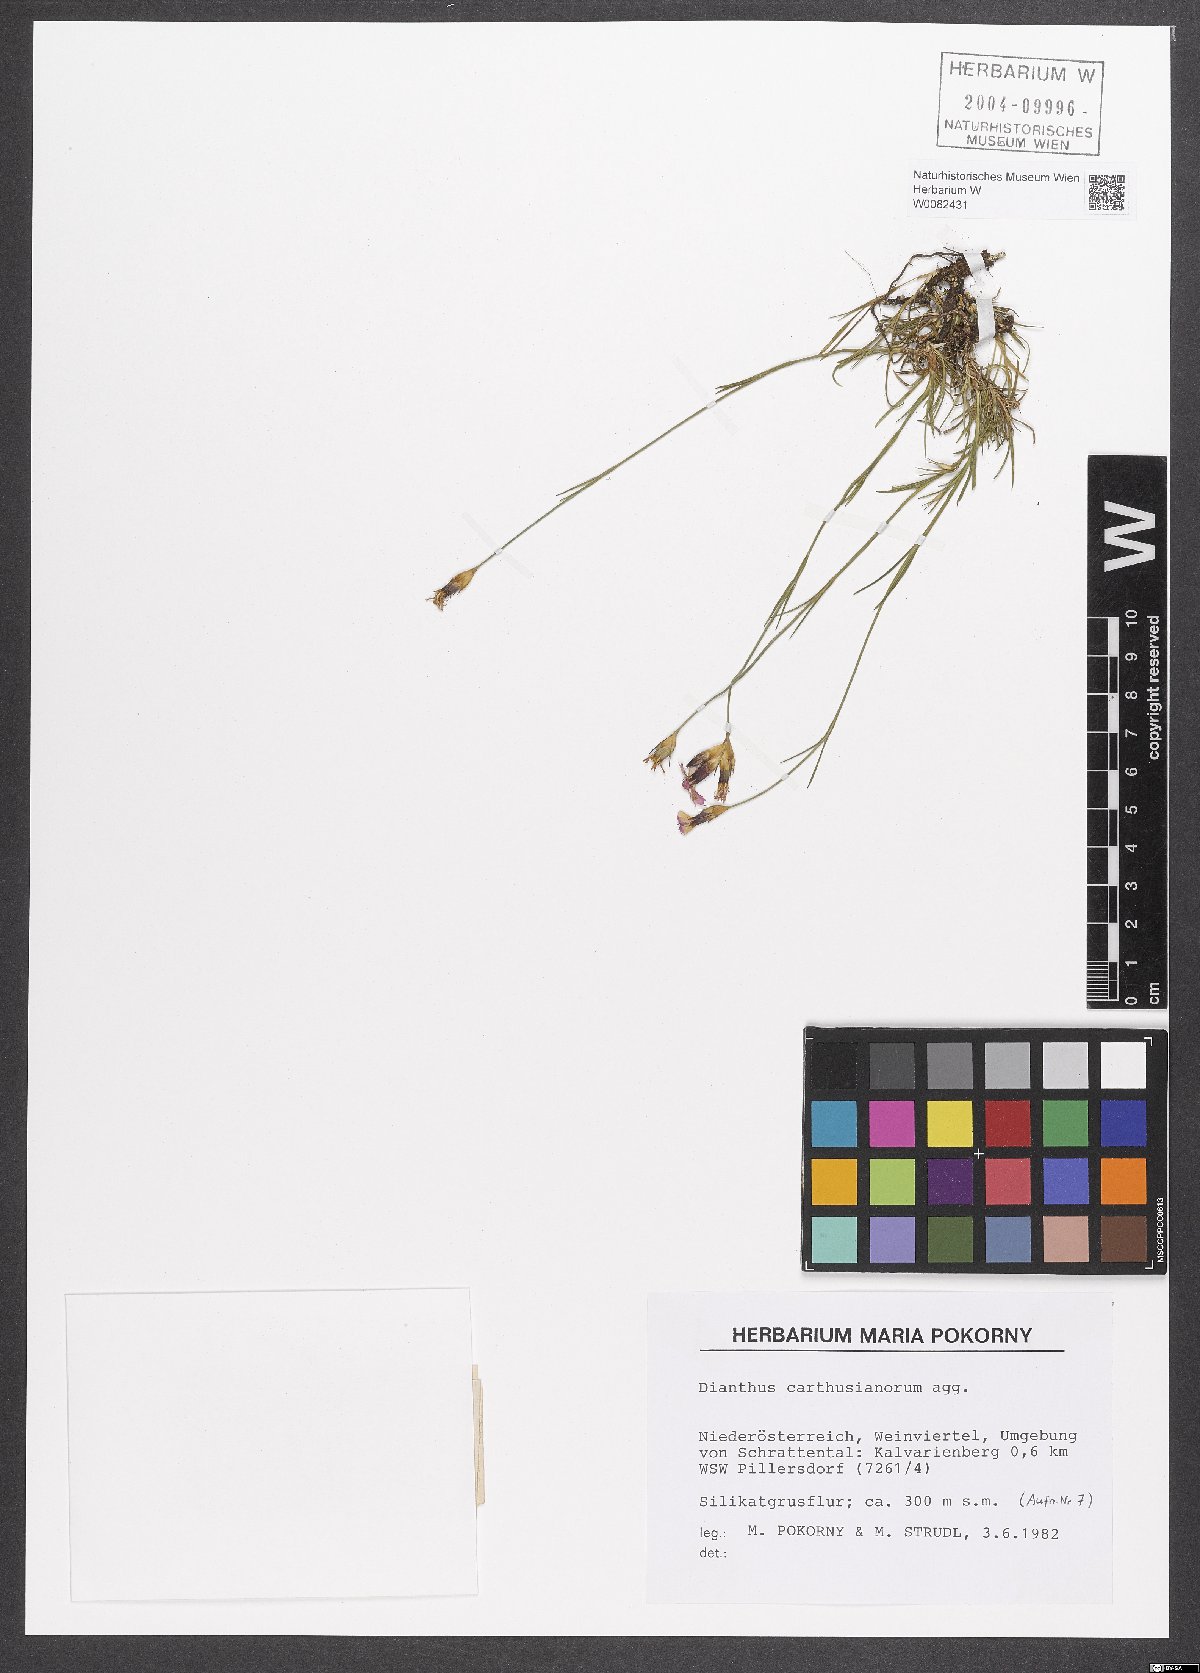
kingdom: Plantae
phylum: Tracheophyta
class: Magnoliopsida
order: Caryophyllales
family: Caryophyllaceae
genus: Dianthus
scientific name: Dianthus carthusianorum
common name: Carthusian pink
